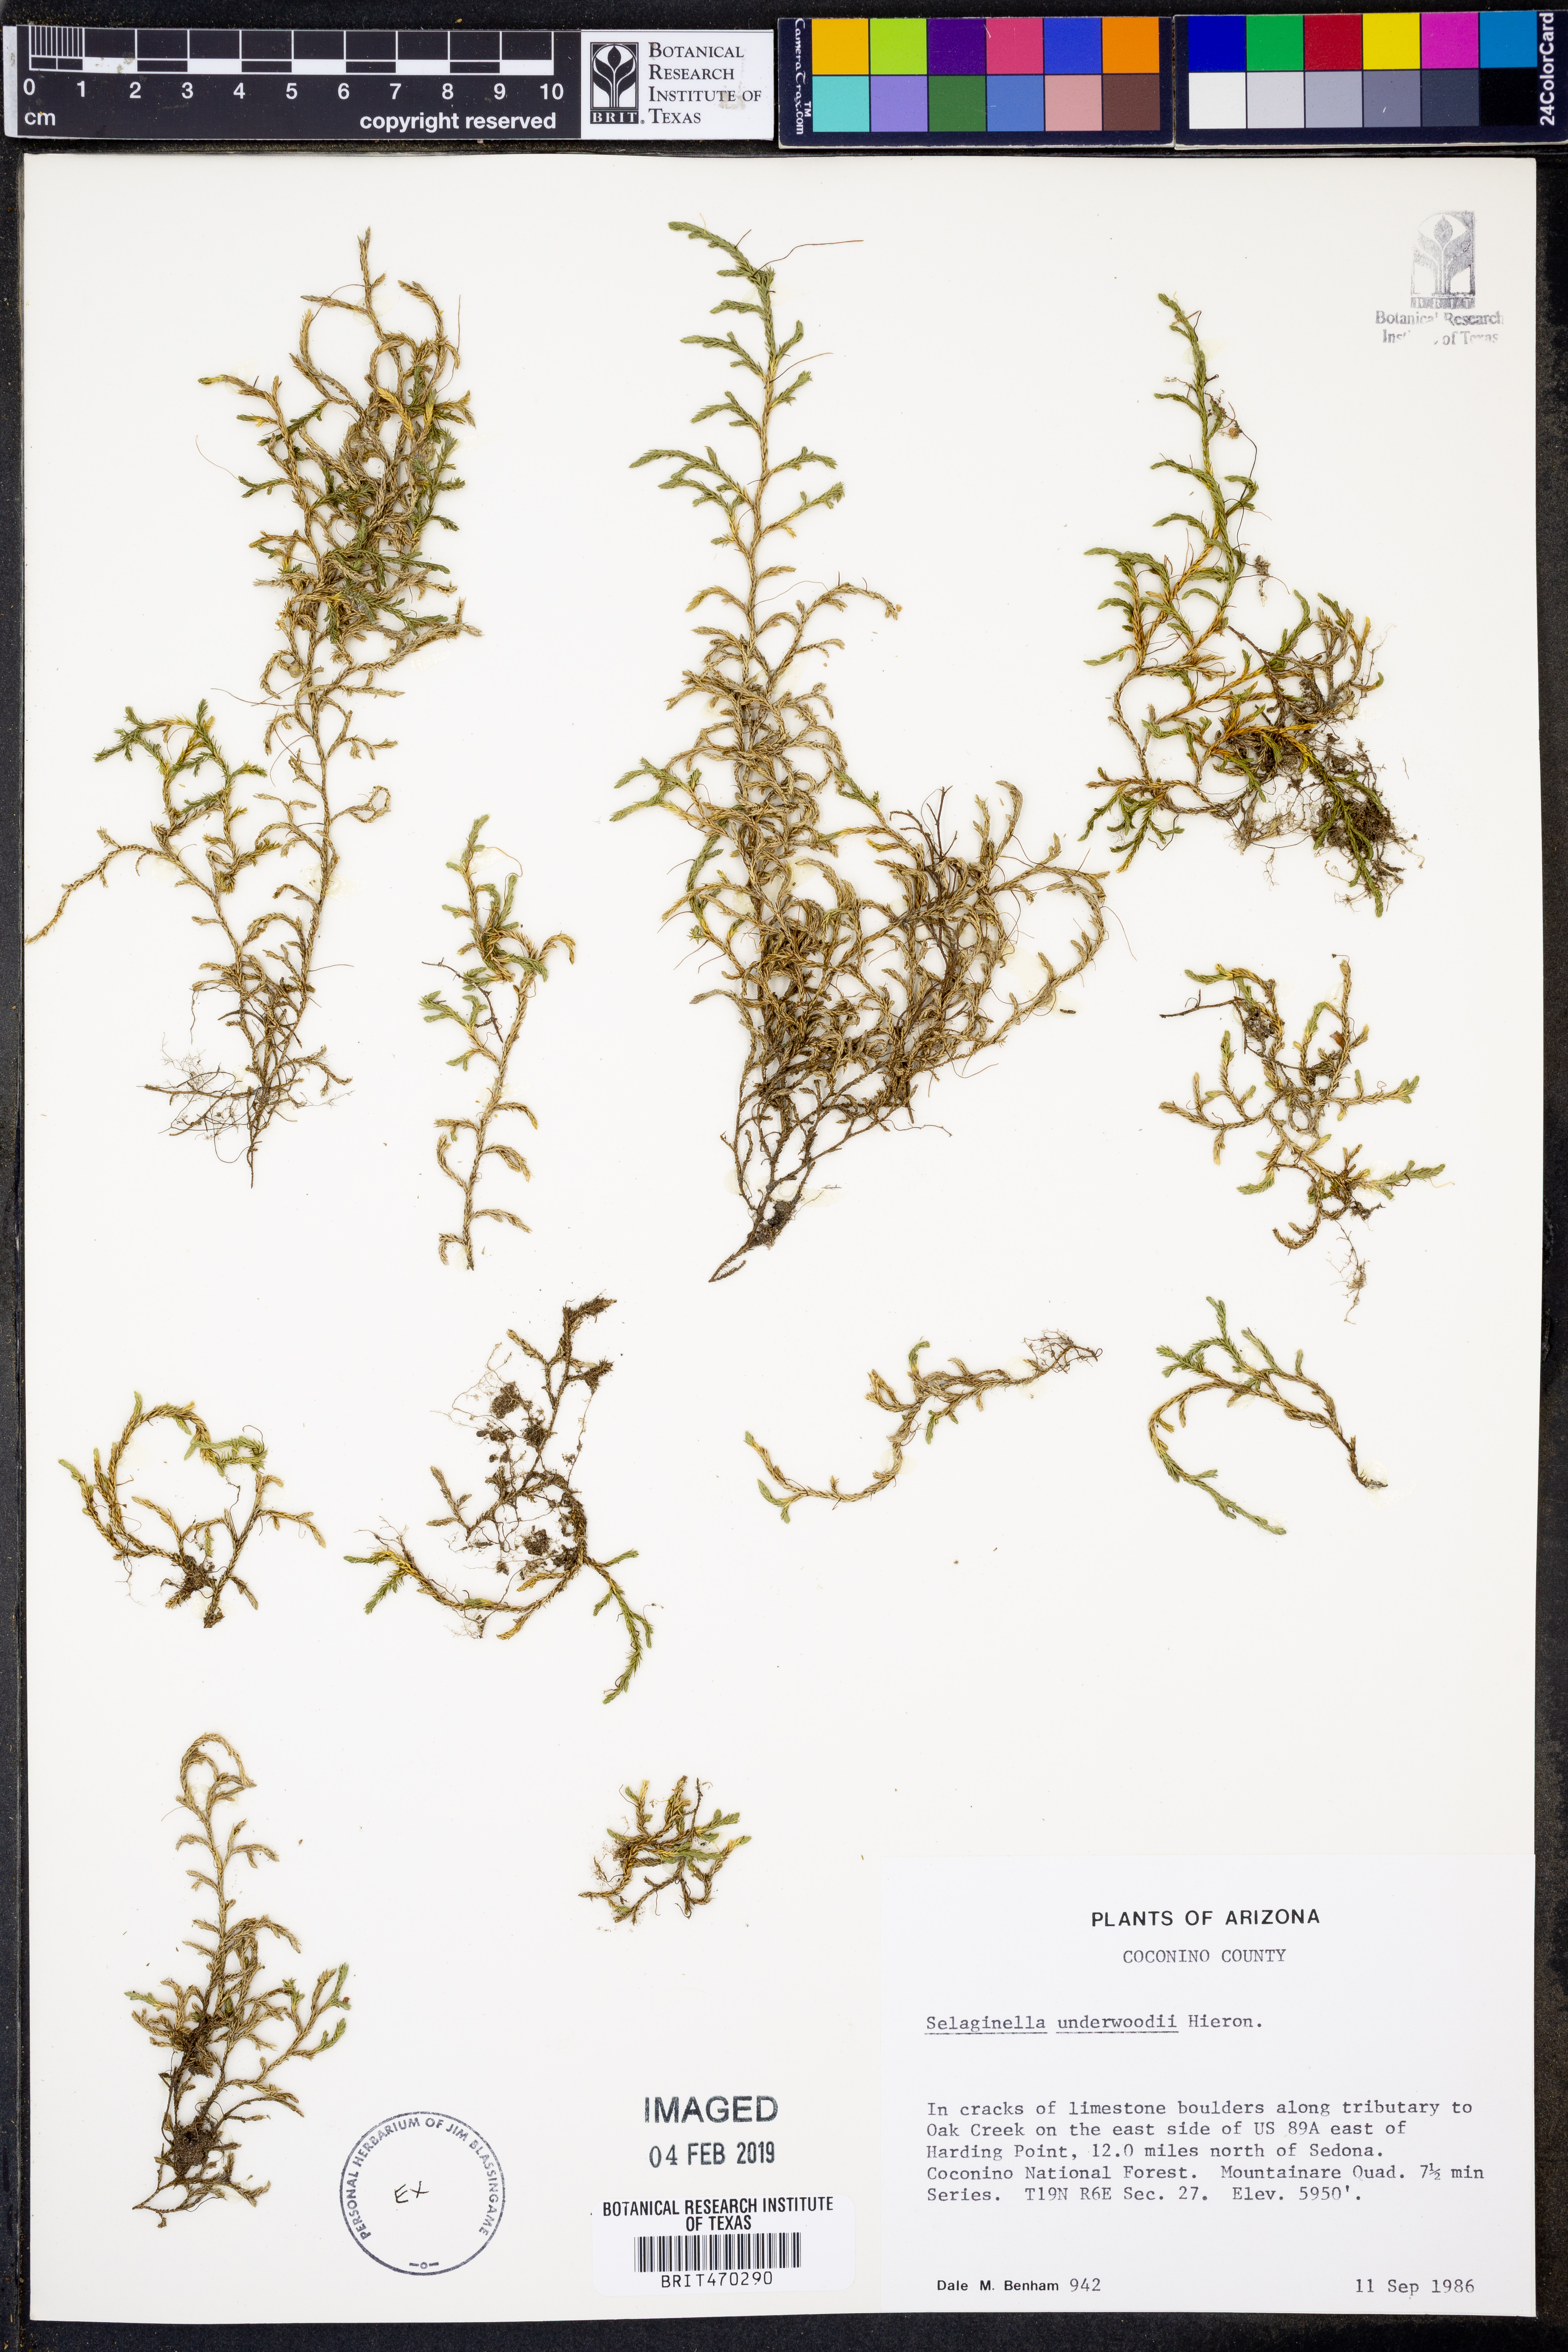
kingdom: Plantae
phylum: Tracheophyta
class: Lycopodiopsida
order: Selaginellales
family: Selaginellaceae
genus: Selaginella
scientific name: Selaginella underwoodii
